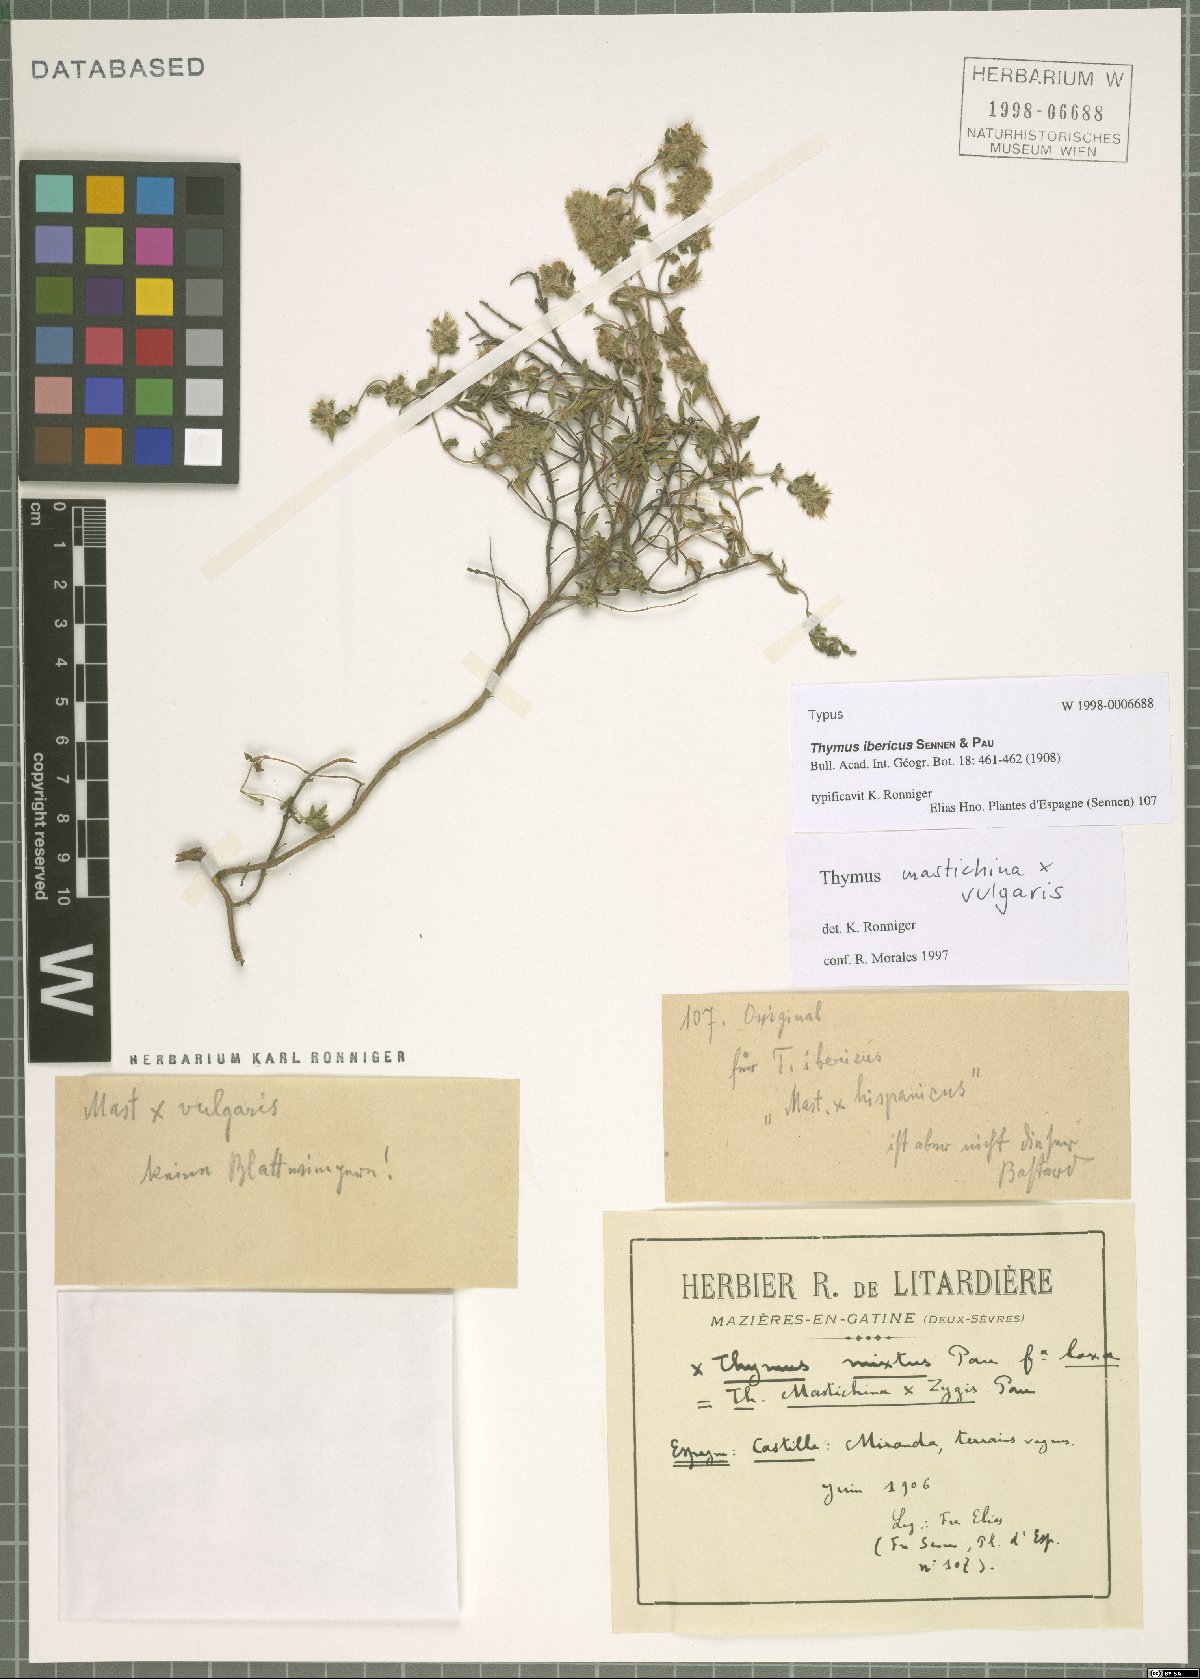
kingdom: Plantae
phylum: Tracheophyta
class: Magnoliopsida
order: Lamiales
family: Lamiaceae
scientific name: Lamiaceae
